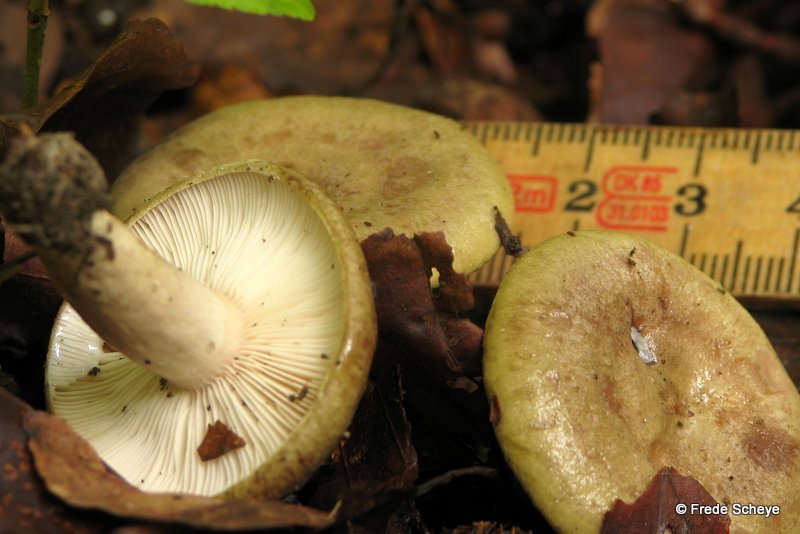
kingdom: Fungi
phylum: Basidiomycota
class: Agaricomycetes
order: Russulales
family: Russulaceae
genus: Lactarius
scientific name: Lactarius blennius
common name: dråbeplettet mælkehat
